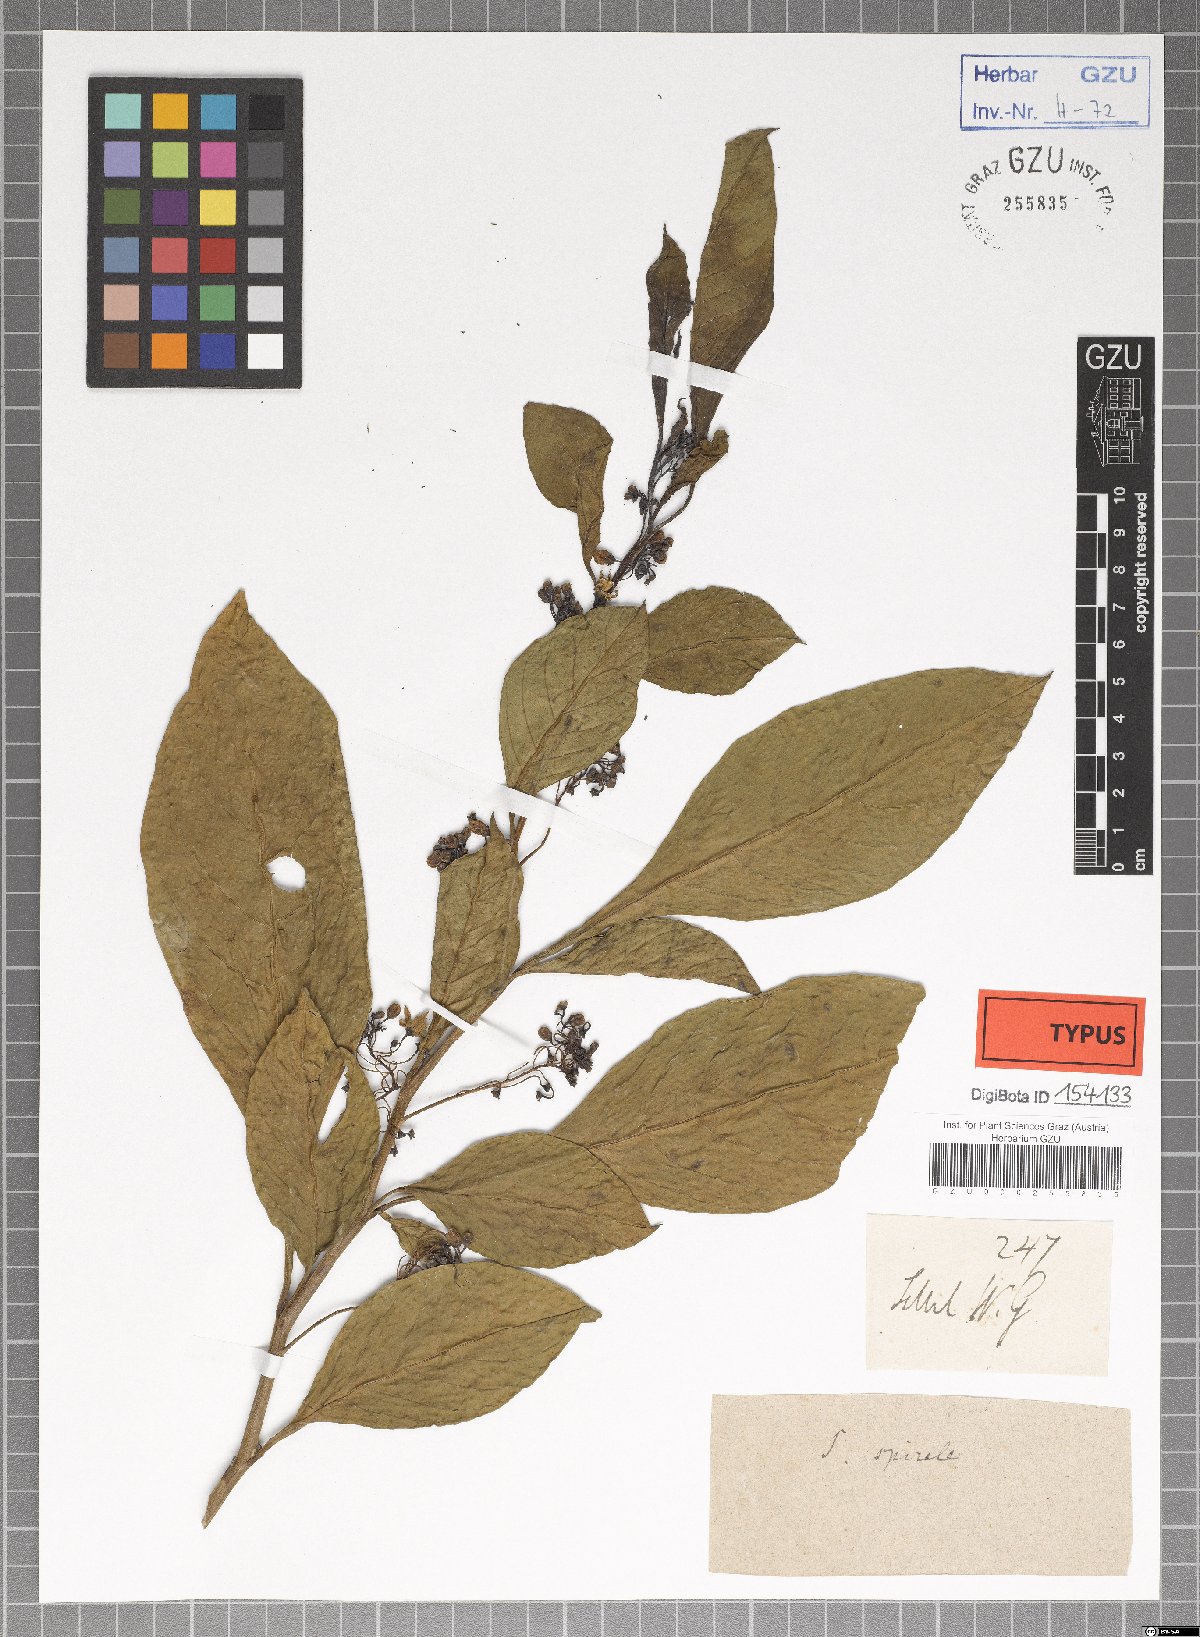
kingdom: Plantae
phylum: Tracheophyta
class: Magnoliopsida
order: Solanales
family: Solanaceae
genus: Solanum
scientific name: Solanum spirale
